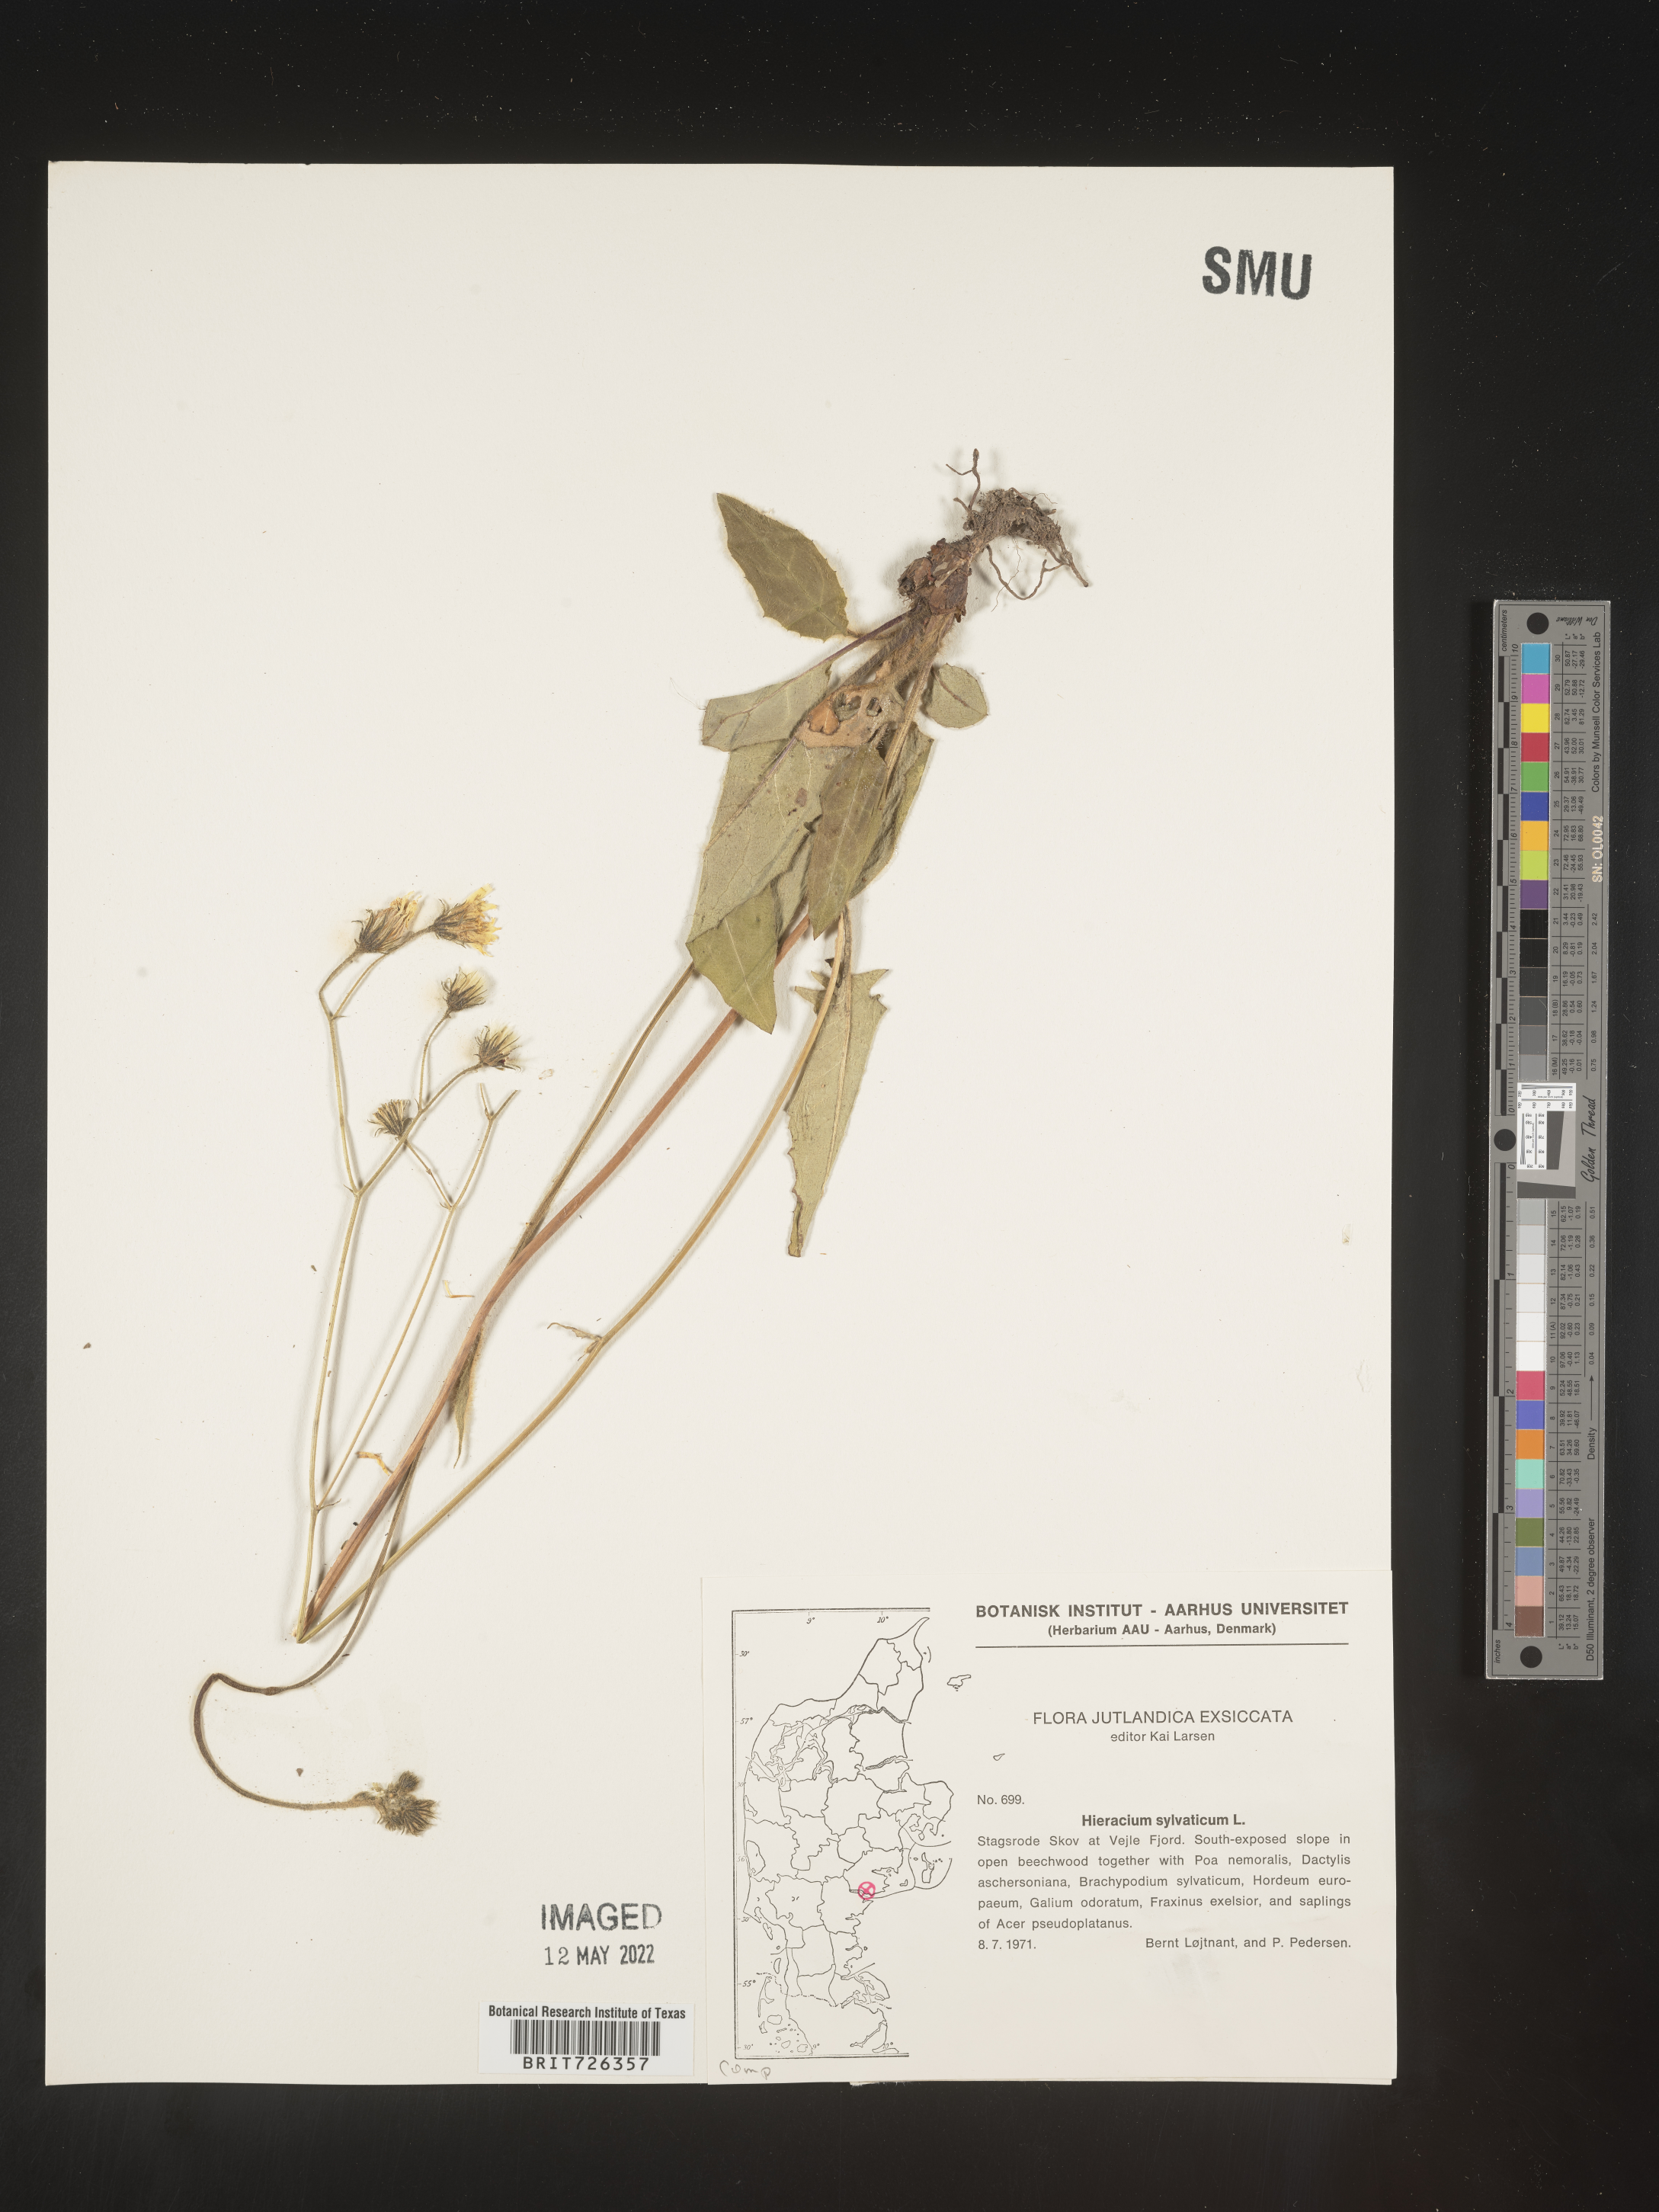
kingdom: Plantae
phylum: Tracheophyta
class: Magnoliopsida
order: Asterales
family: Asteraceae
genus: Hieracium
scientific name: Hieracium
